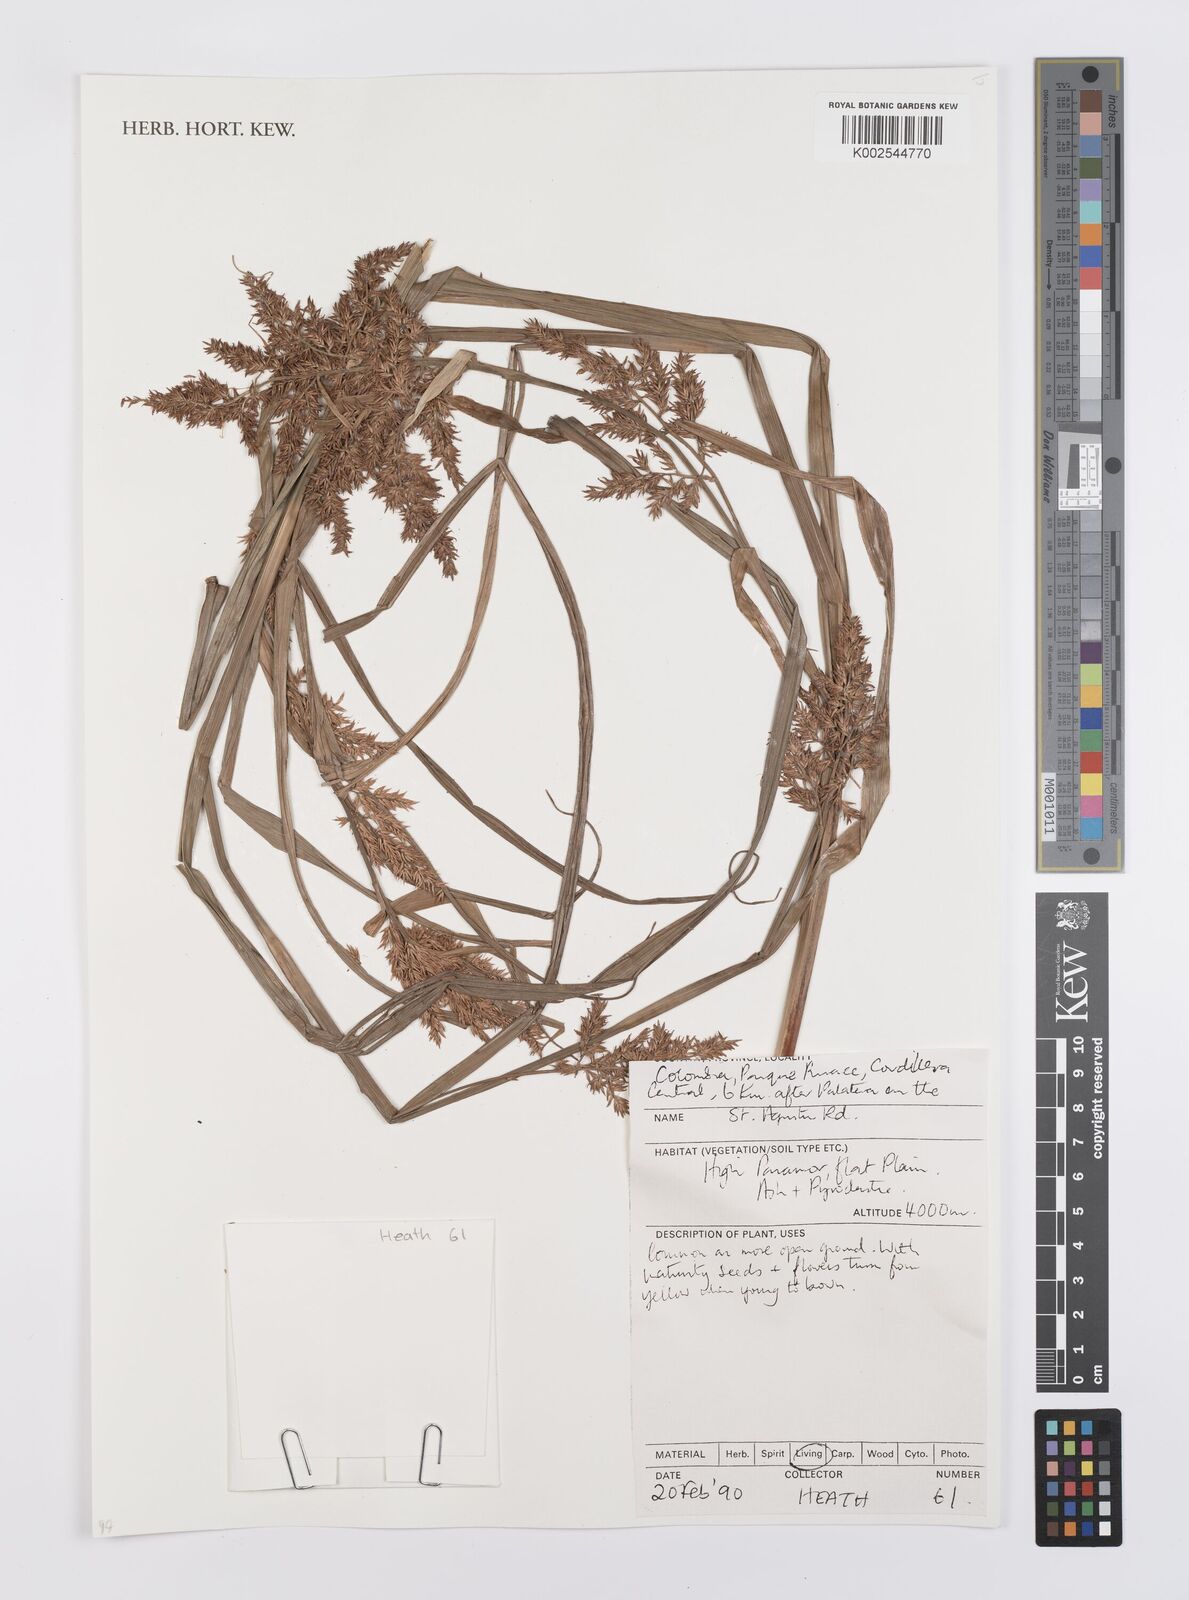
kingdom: Plantae
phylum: Tracheophyta
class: Liliopsida
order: Poales
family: Cyperaceae
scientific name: Cyperaceae
